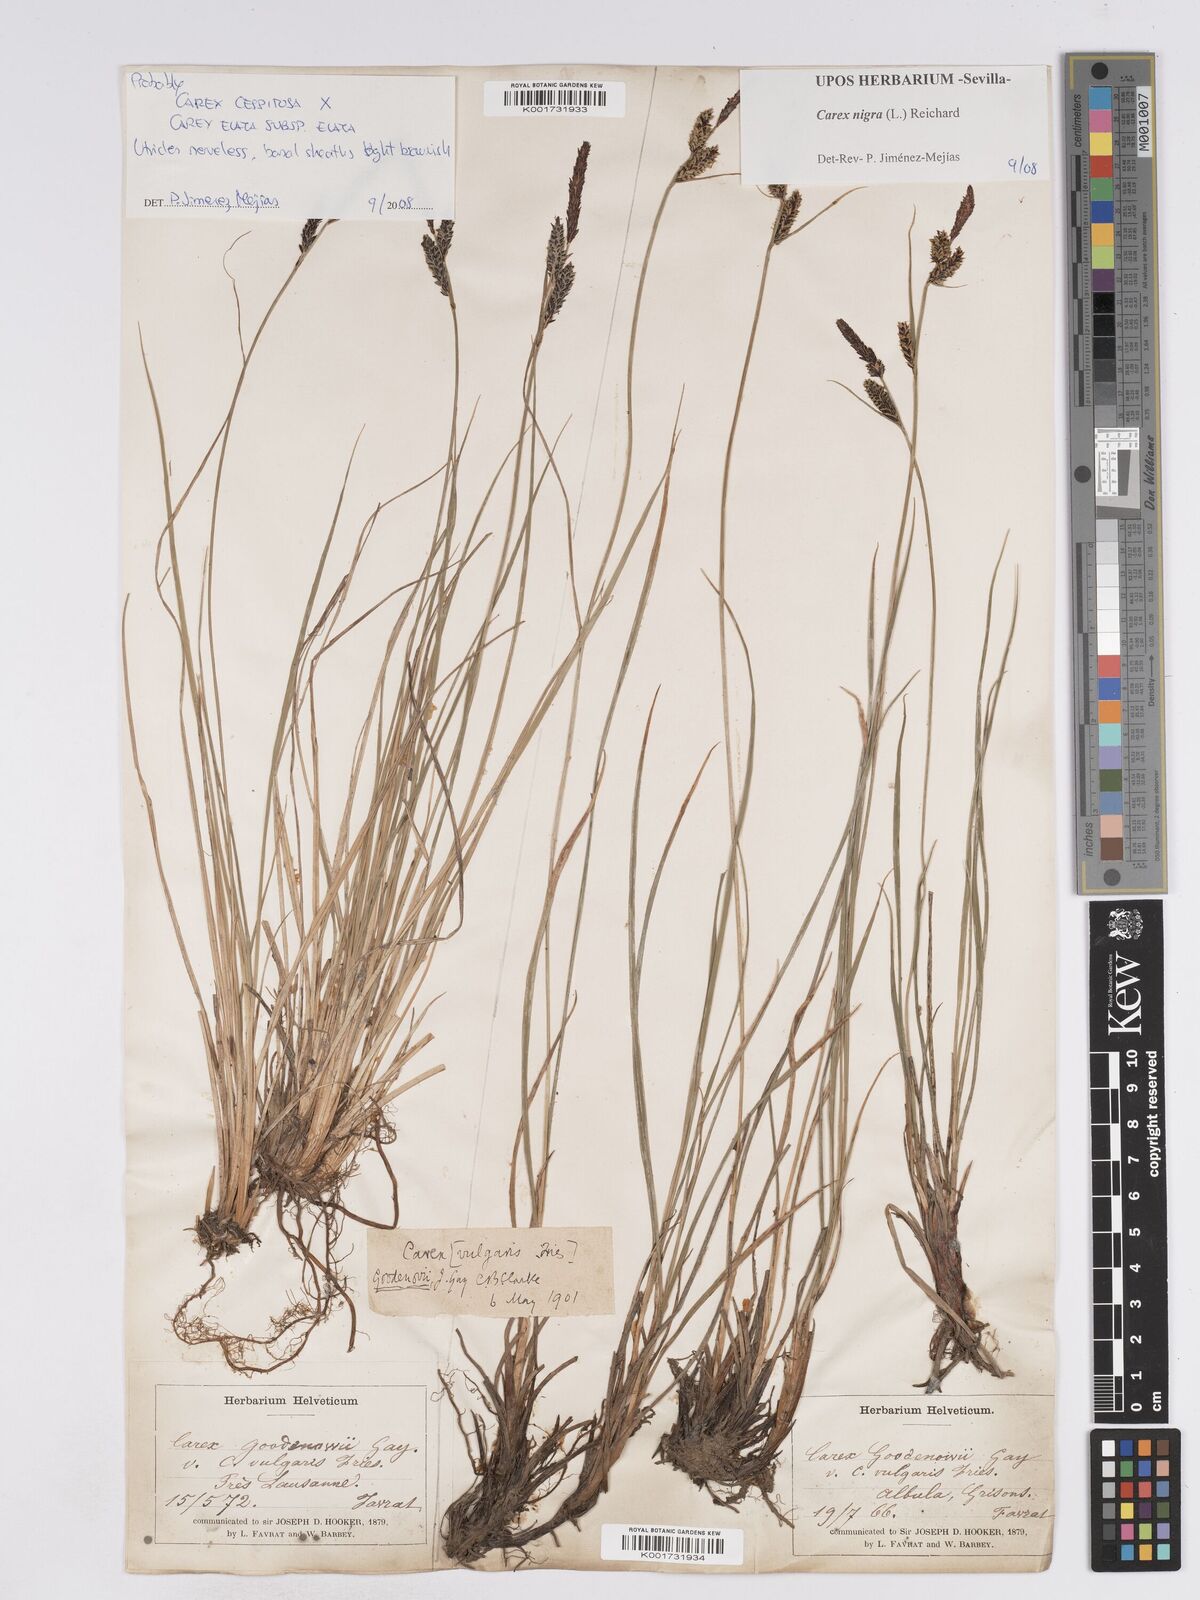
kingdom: Plantae
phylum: Tracheophyta
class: Liliopsida
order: Poales
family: Cyperaceae
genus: Carex
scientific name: Carex
